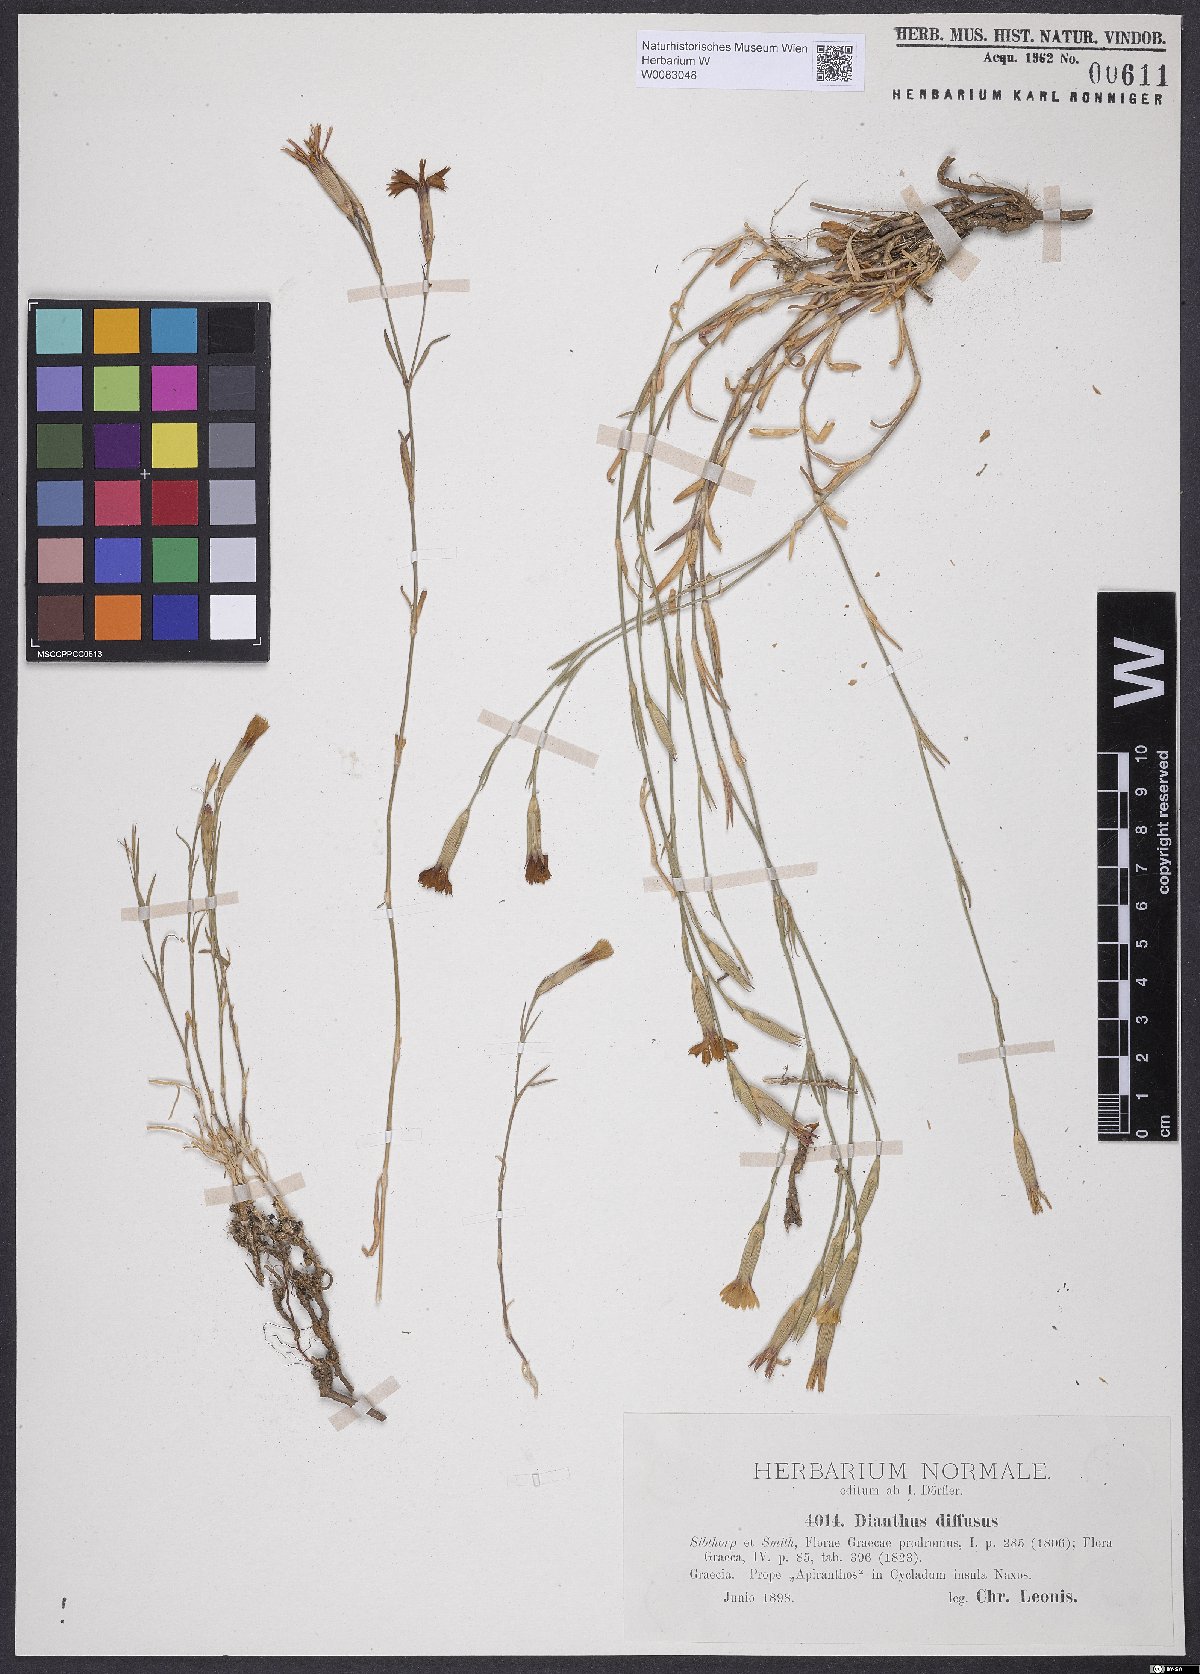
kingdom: Plantae
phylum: Tracheophyta
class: Magnoliopsida
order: Caryophyllales
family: Caryophyllaceae
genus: Dianthus
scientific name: Dianthus diffusus
